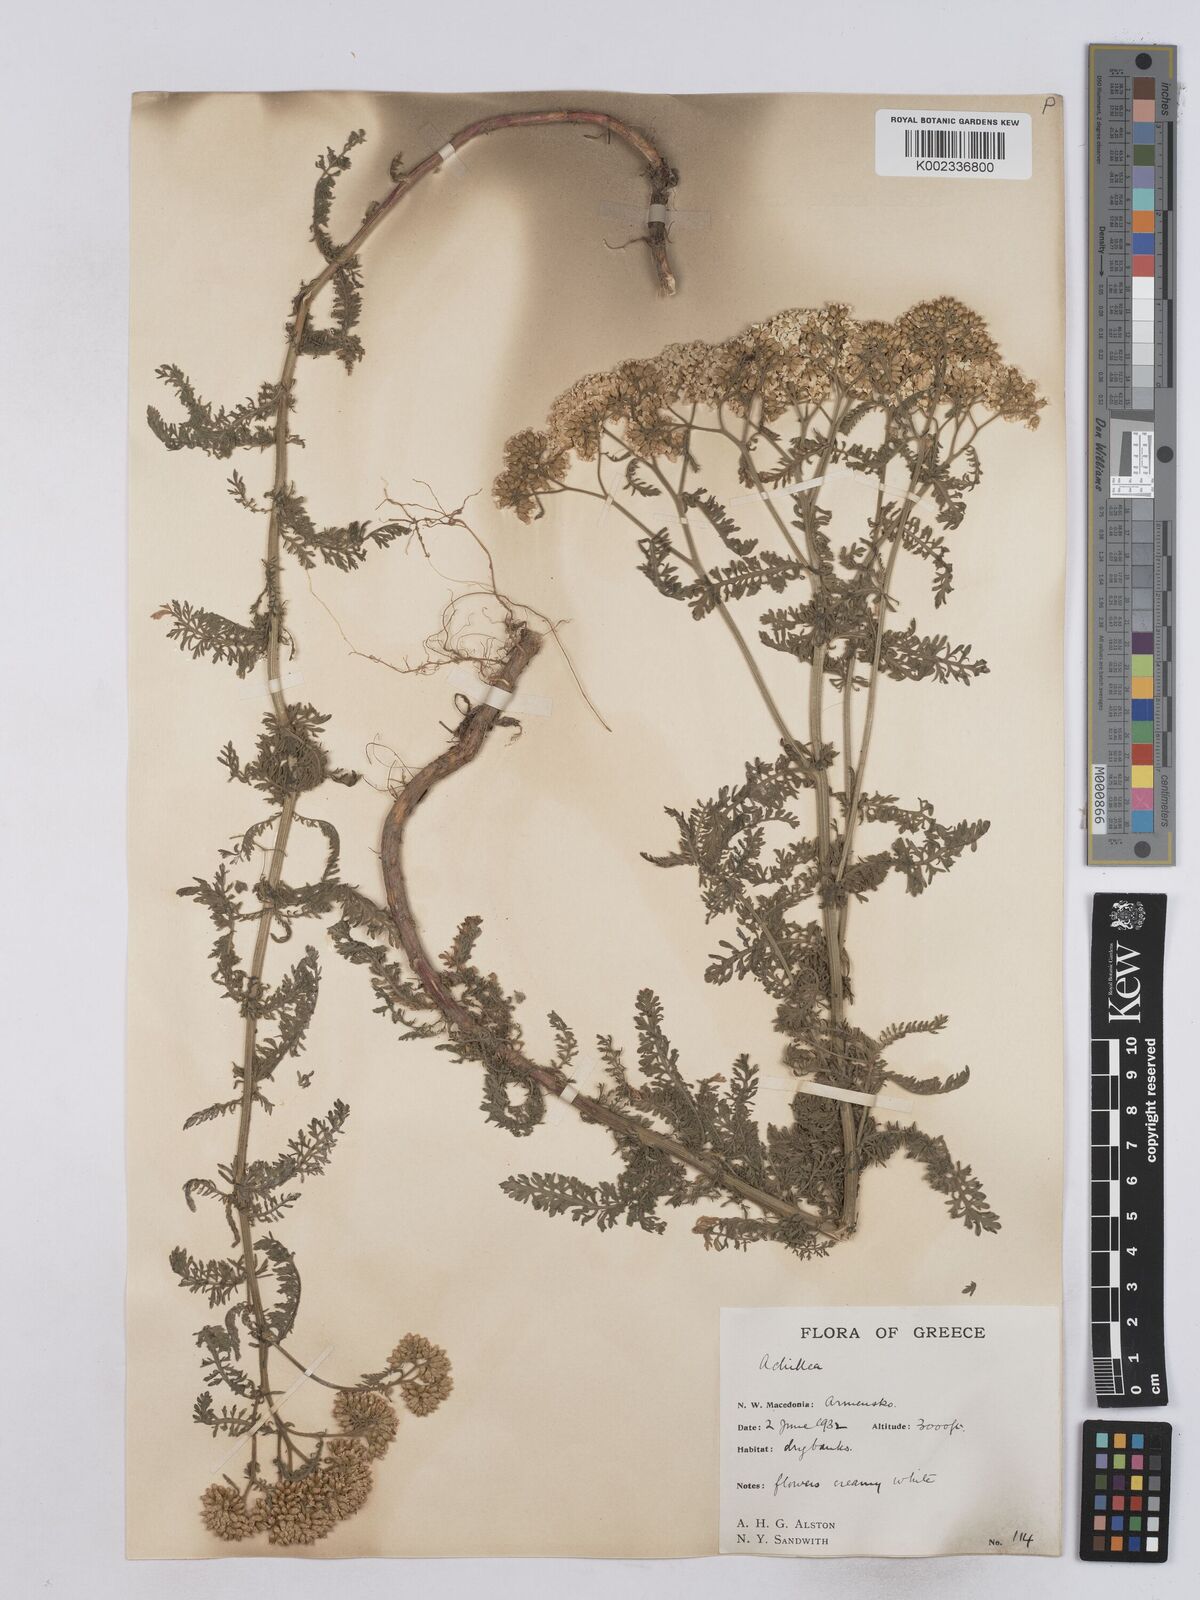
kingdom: Plantae
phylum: Tracheophyta
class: Magnoliopsida
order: Asterales
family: Asteraceae
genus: Achillea
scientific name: Achillea crithmifolia
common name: Yarrow
